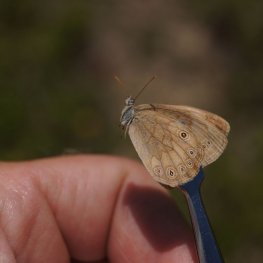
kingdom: Animalia
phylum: Arthropoda
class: Insecta
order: Lepidoptera
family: Nymphalidae
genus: Lethe
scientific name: Lethe eurydice
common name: Eyed Brown
